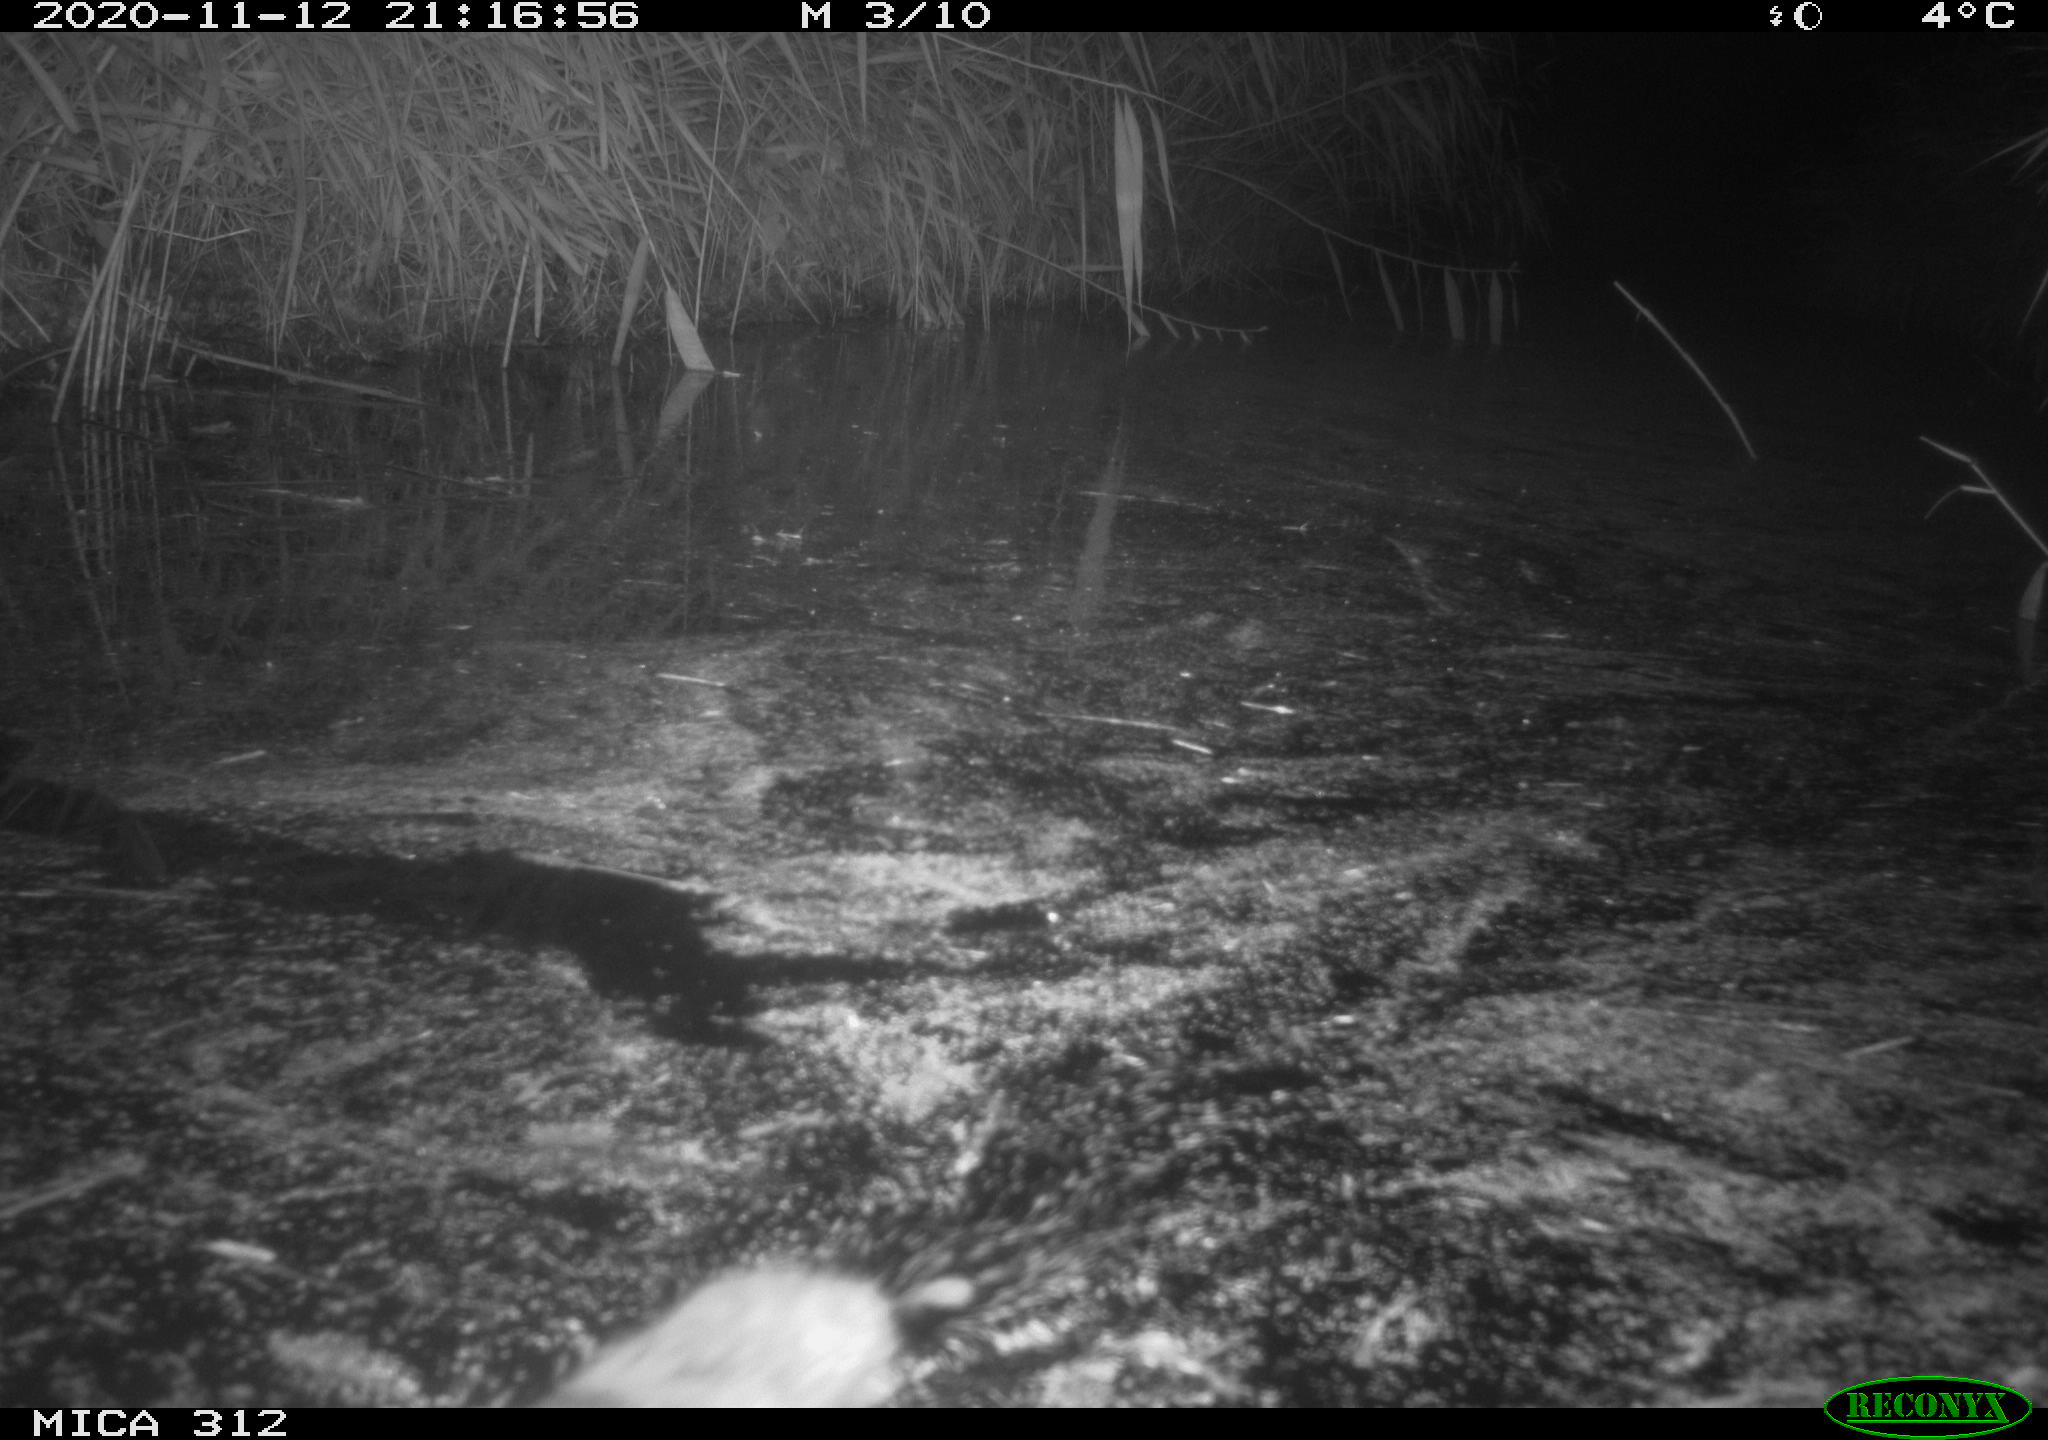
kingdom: Animalia
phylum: Chordata
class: Mammalia
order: Rodentia
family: Muridae
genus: Rattus
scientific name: Rattus norvegicus
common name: Brown rat
